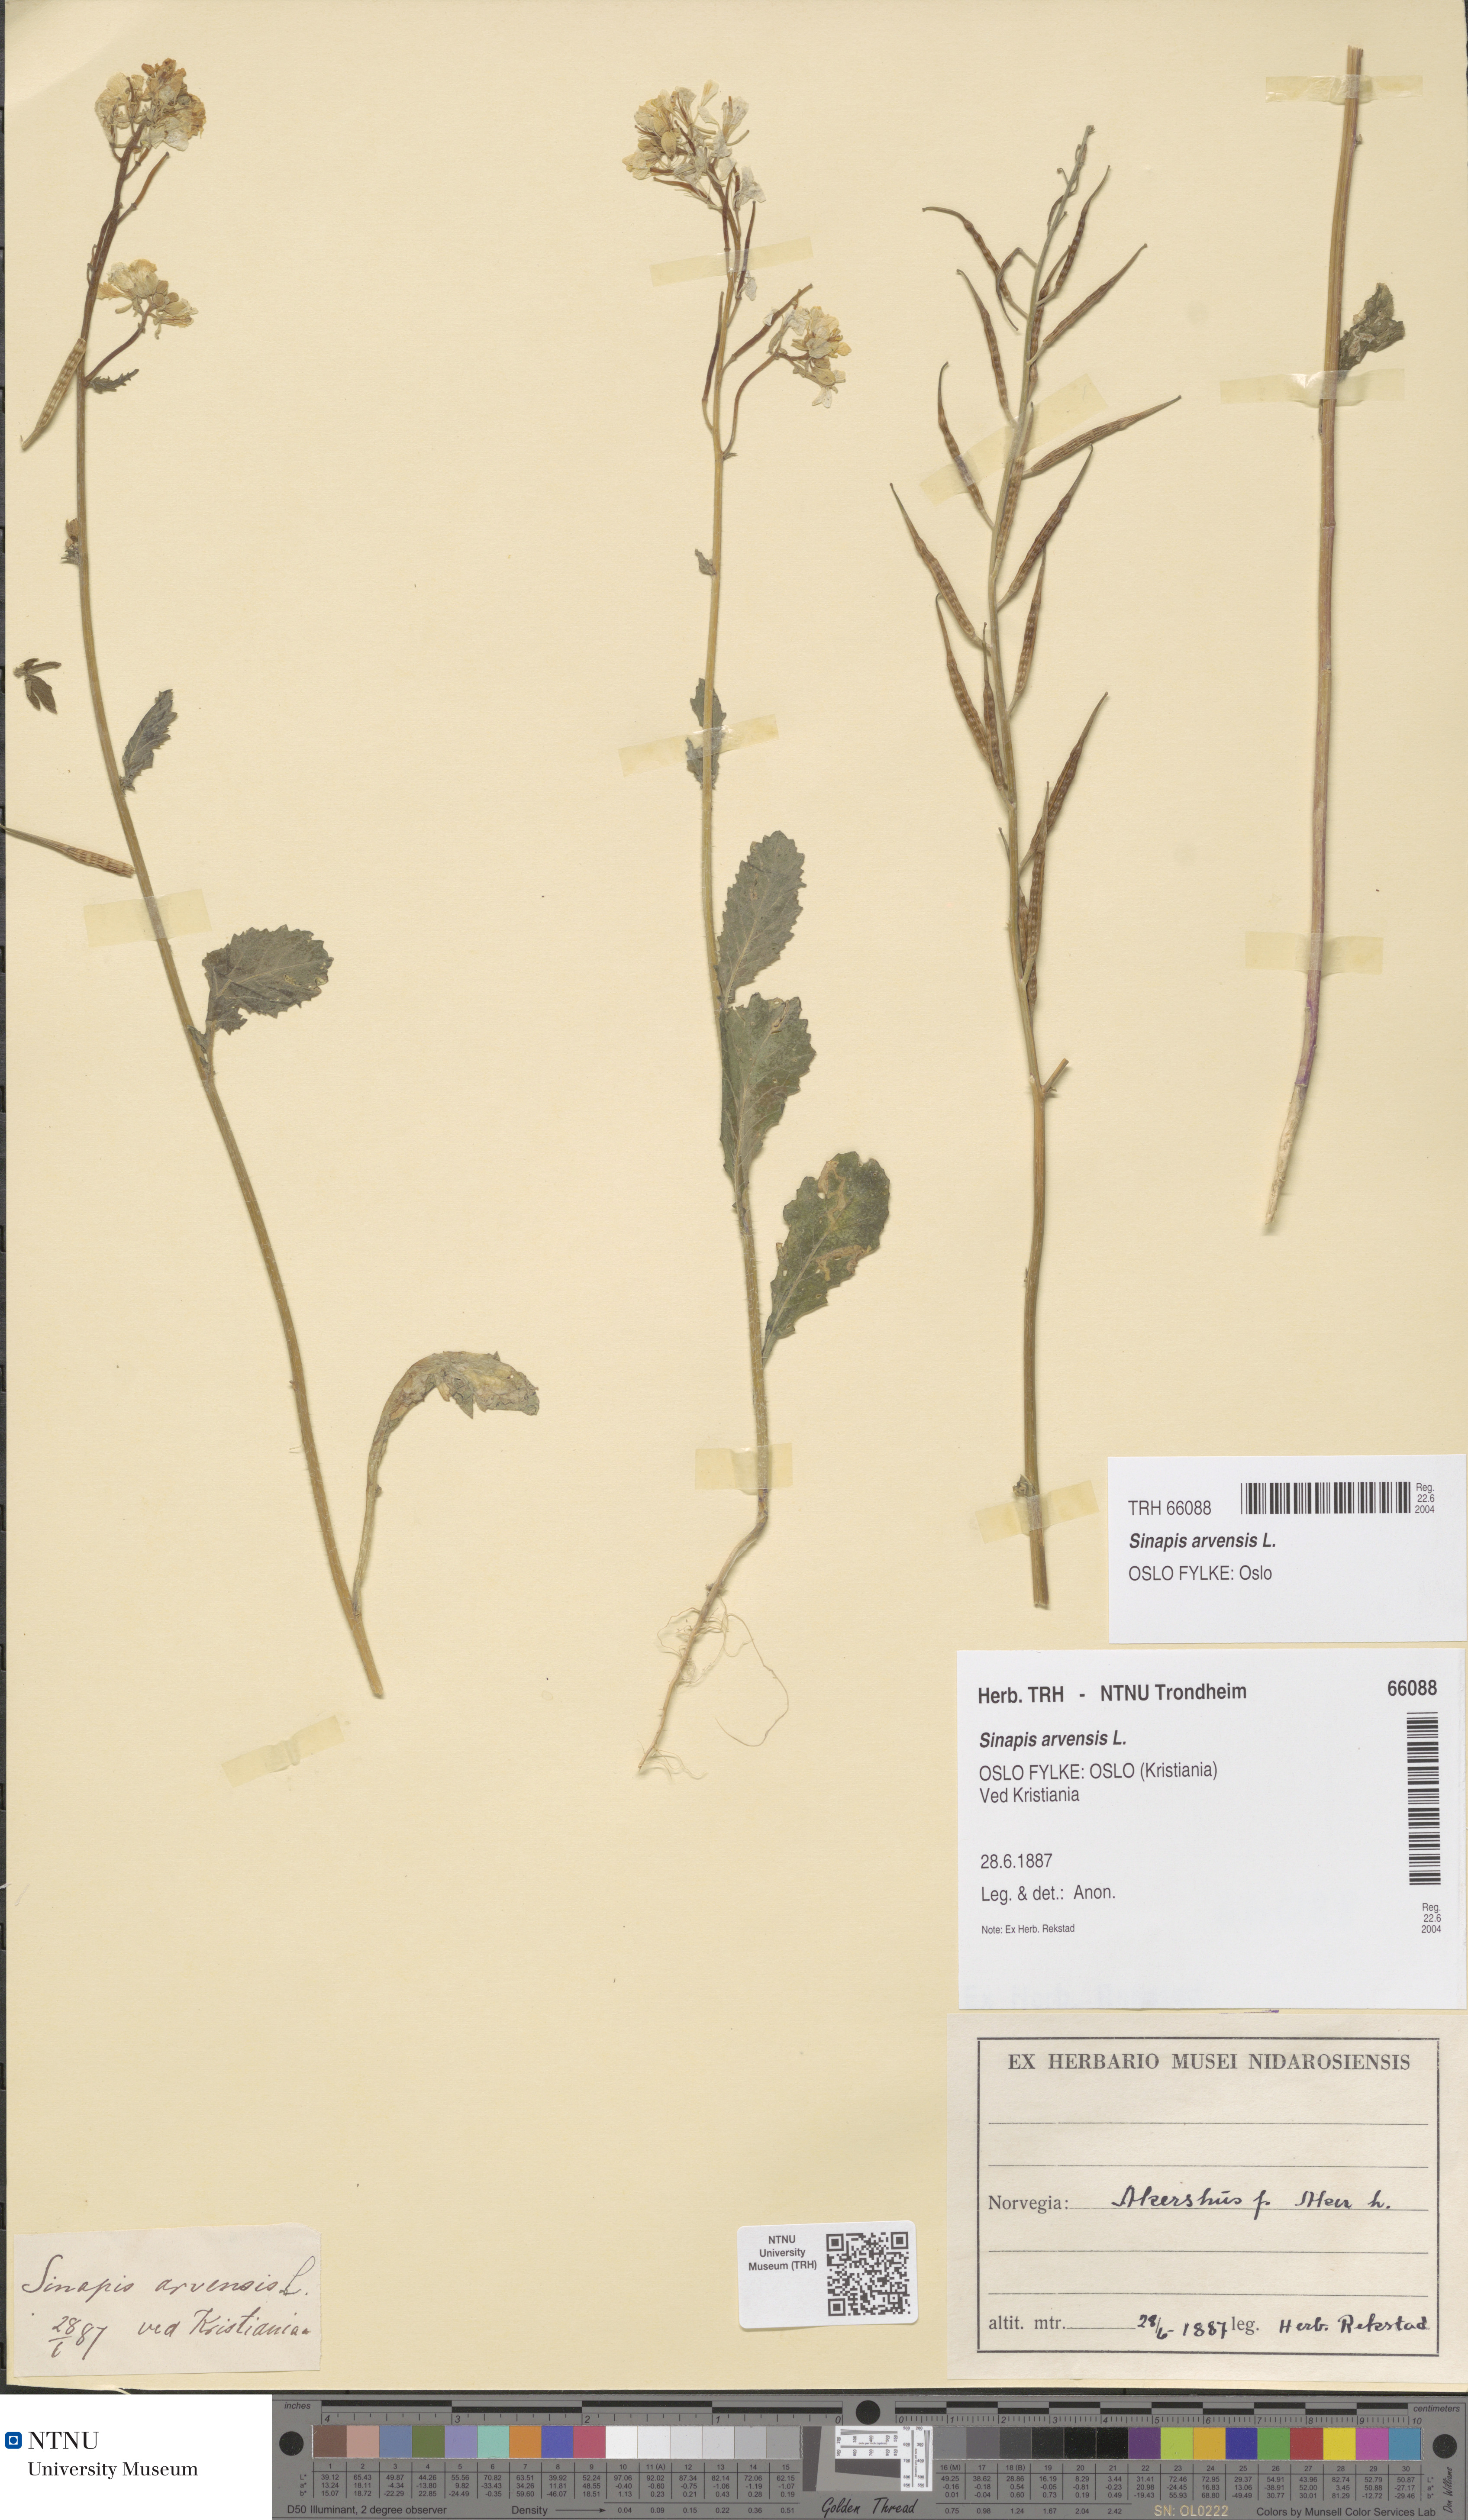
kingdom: Plantae
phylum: Tracheophyta
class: Magnoliopsida
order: Brassicales
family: Brassicaceae
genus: Sinapis
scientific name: Sinapis arvensis
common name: Charlock
